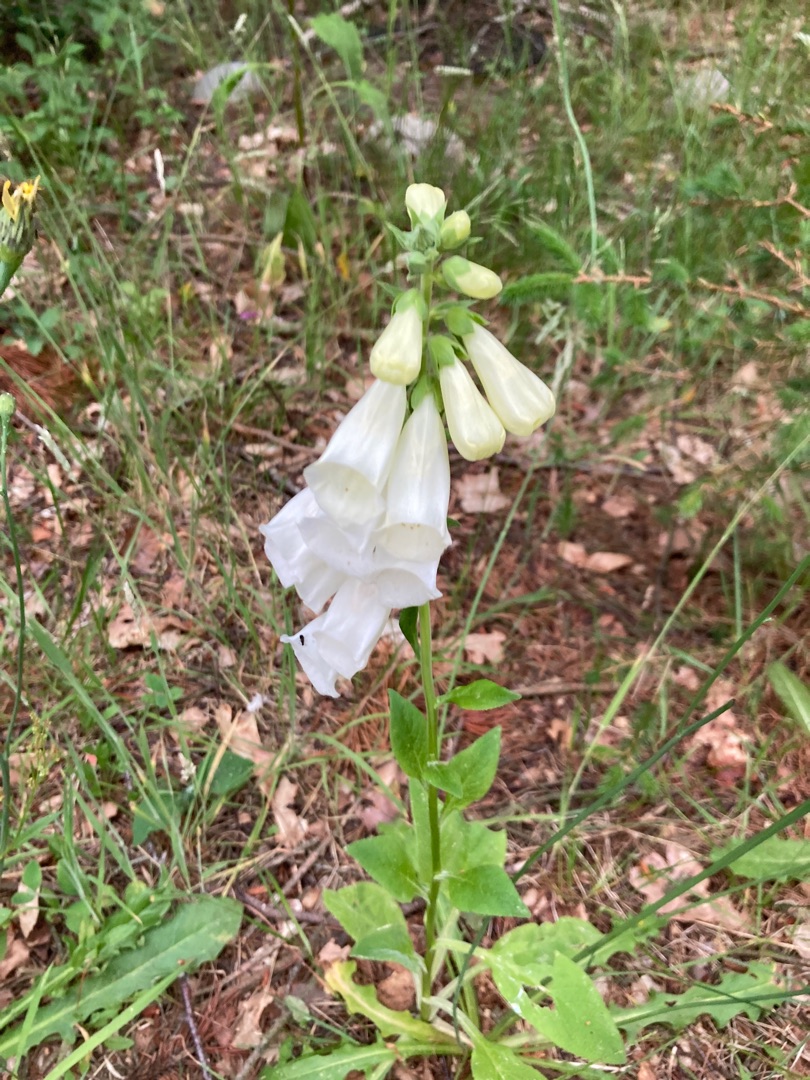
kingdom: Plantae
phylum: Tracheophyta
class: Magnoliopsida
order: Lamiales
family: Plantaginaceae
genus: Digitalis
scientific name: Digitalis purpurea
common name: Almindelig fingerbøl
